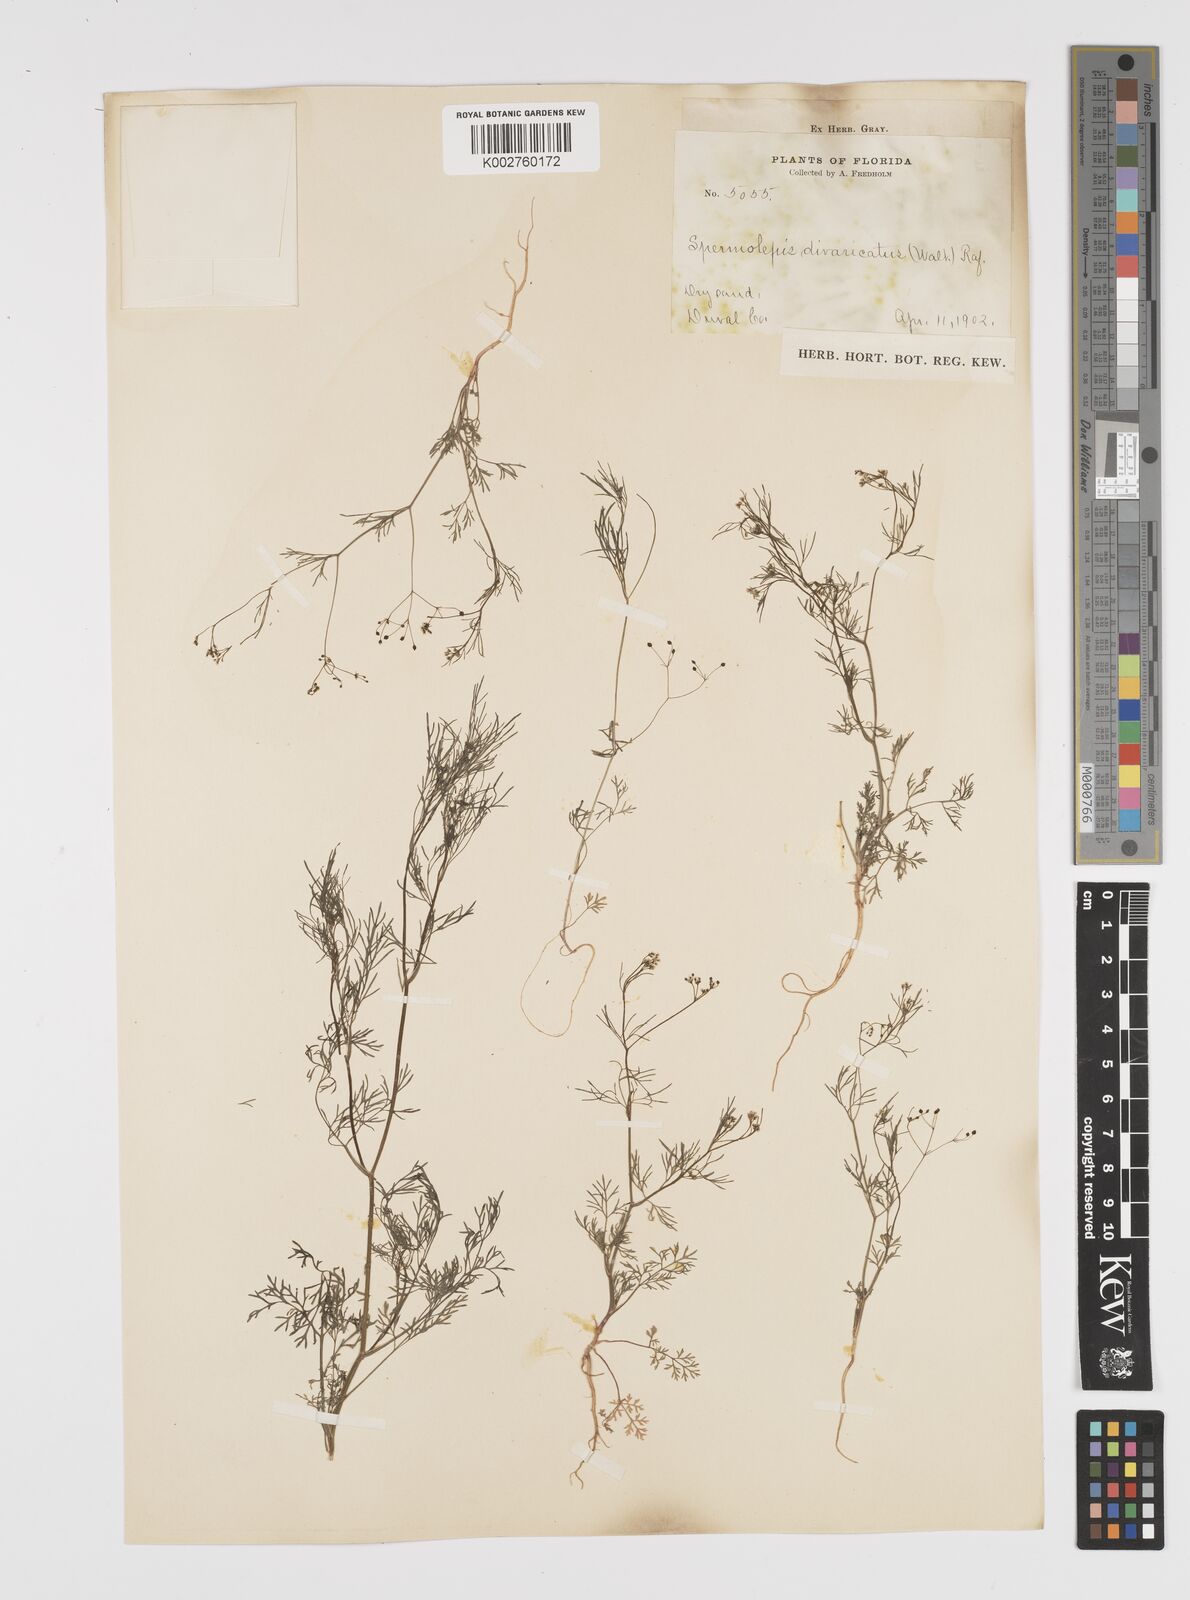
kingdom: Plantae
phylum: Tracheophyta
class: Magnoliopsida
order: Apiales
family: Apiaceae
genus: Spermolepis
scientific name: Spermolepis divaricata
